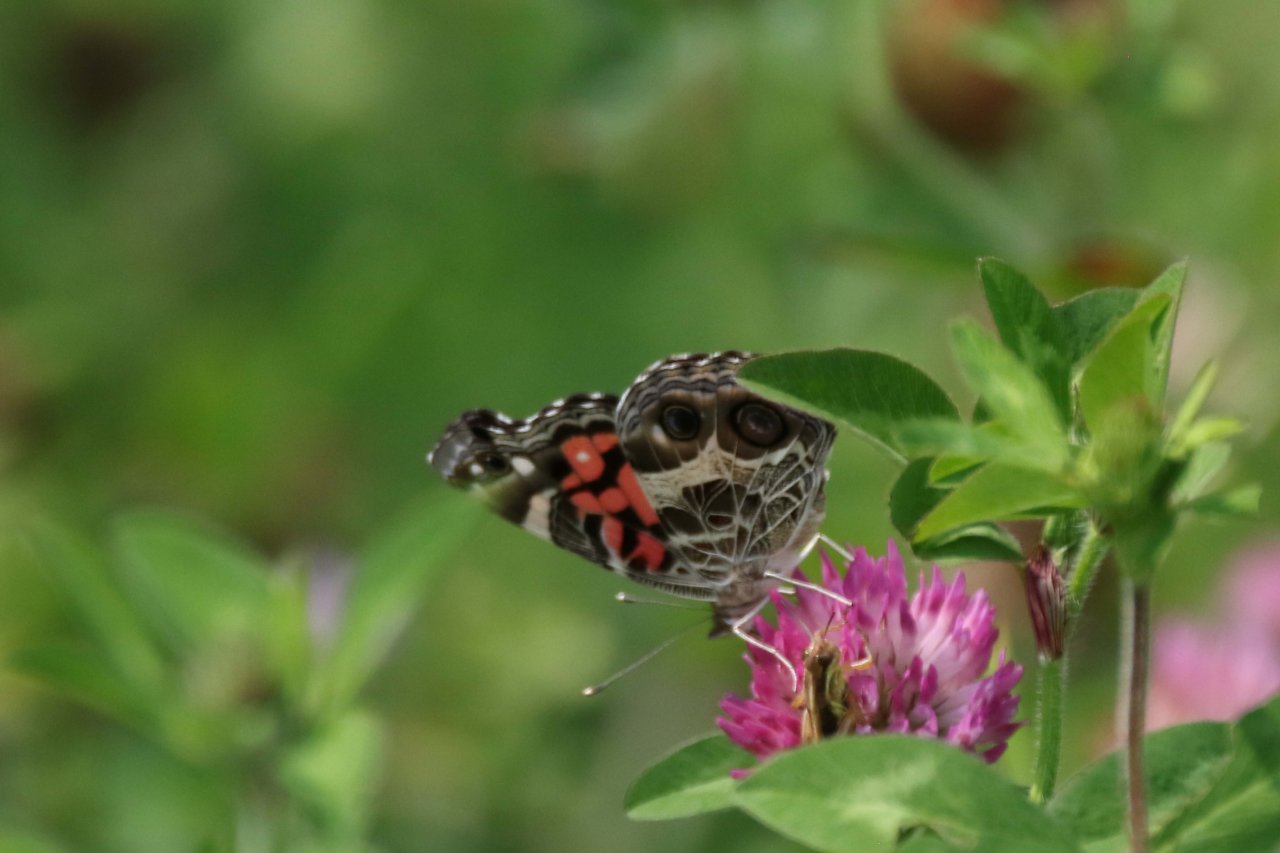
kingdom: Animalia
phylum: Arthropoda
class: Insecta
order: Lepidoptera
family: Nymphalidae
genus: Vanessa
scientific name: Vanessa virginiensis
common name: American Lady
